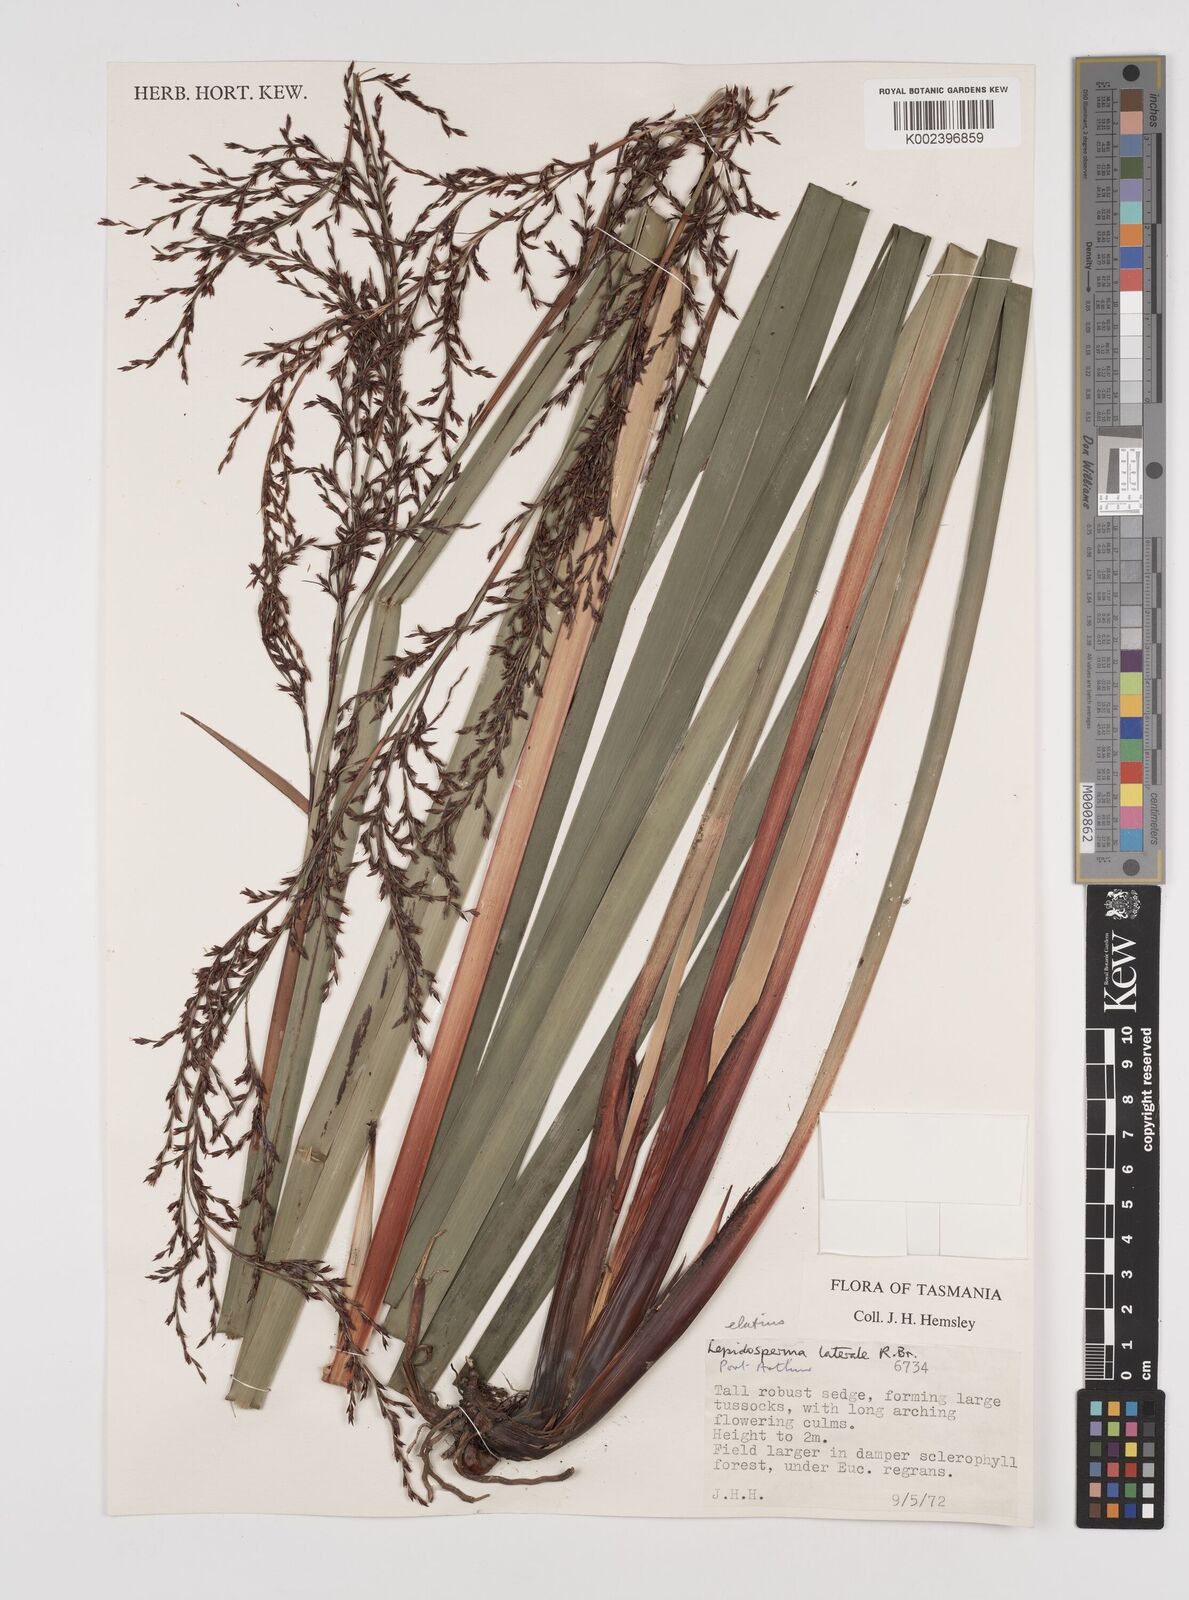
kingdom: Plantae
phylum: Tracheophyta
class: Liliopsida
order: Poales
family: Cyperaceae
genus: Lepidosperma
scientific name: Lepidosperma laterale
